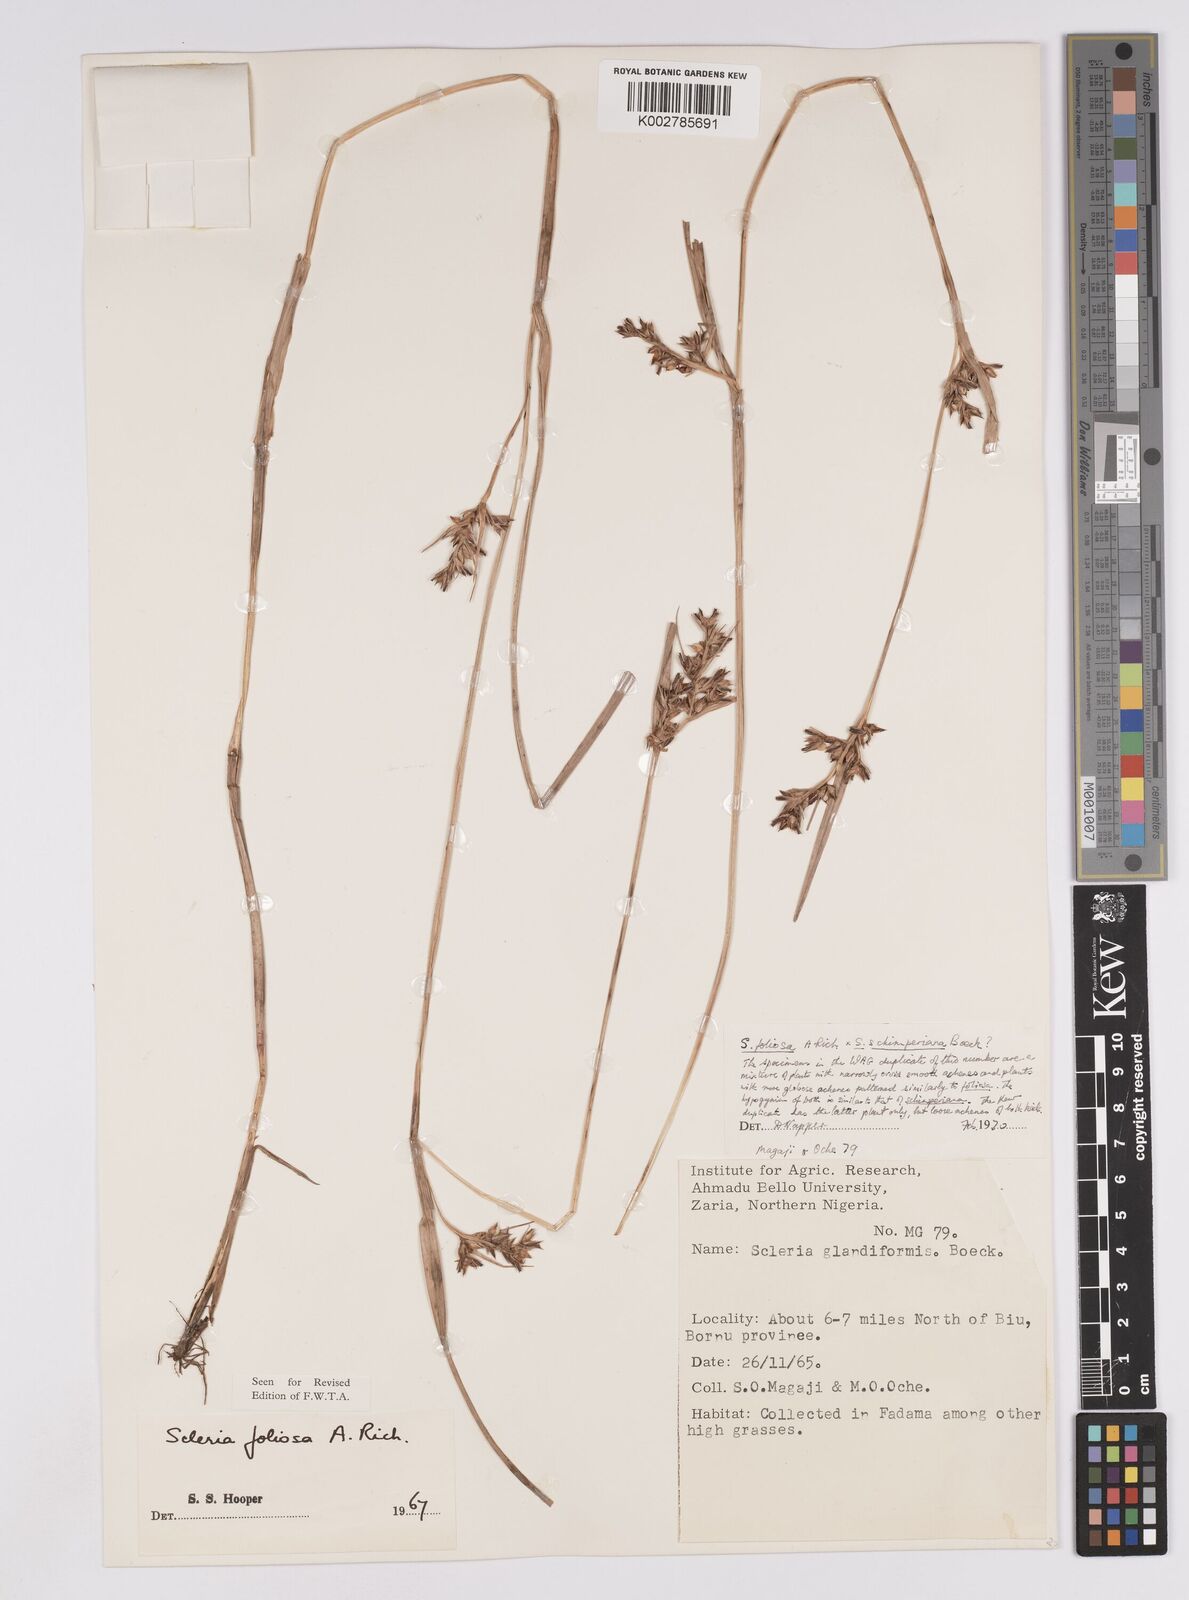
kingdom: Plantae
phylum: Tracheophyta
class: Liliopsida
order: Poales
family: Cyperaceae
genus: Scleria
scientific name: Scleria foliosa
